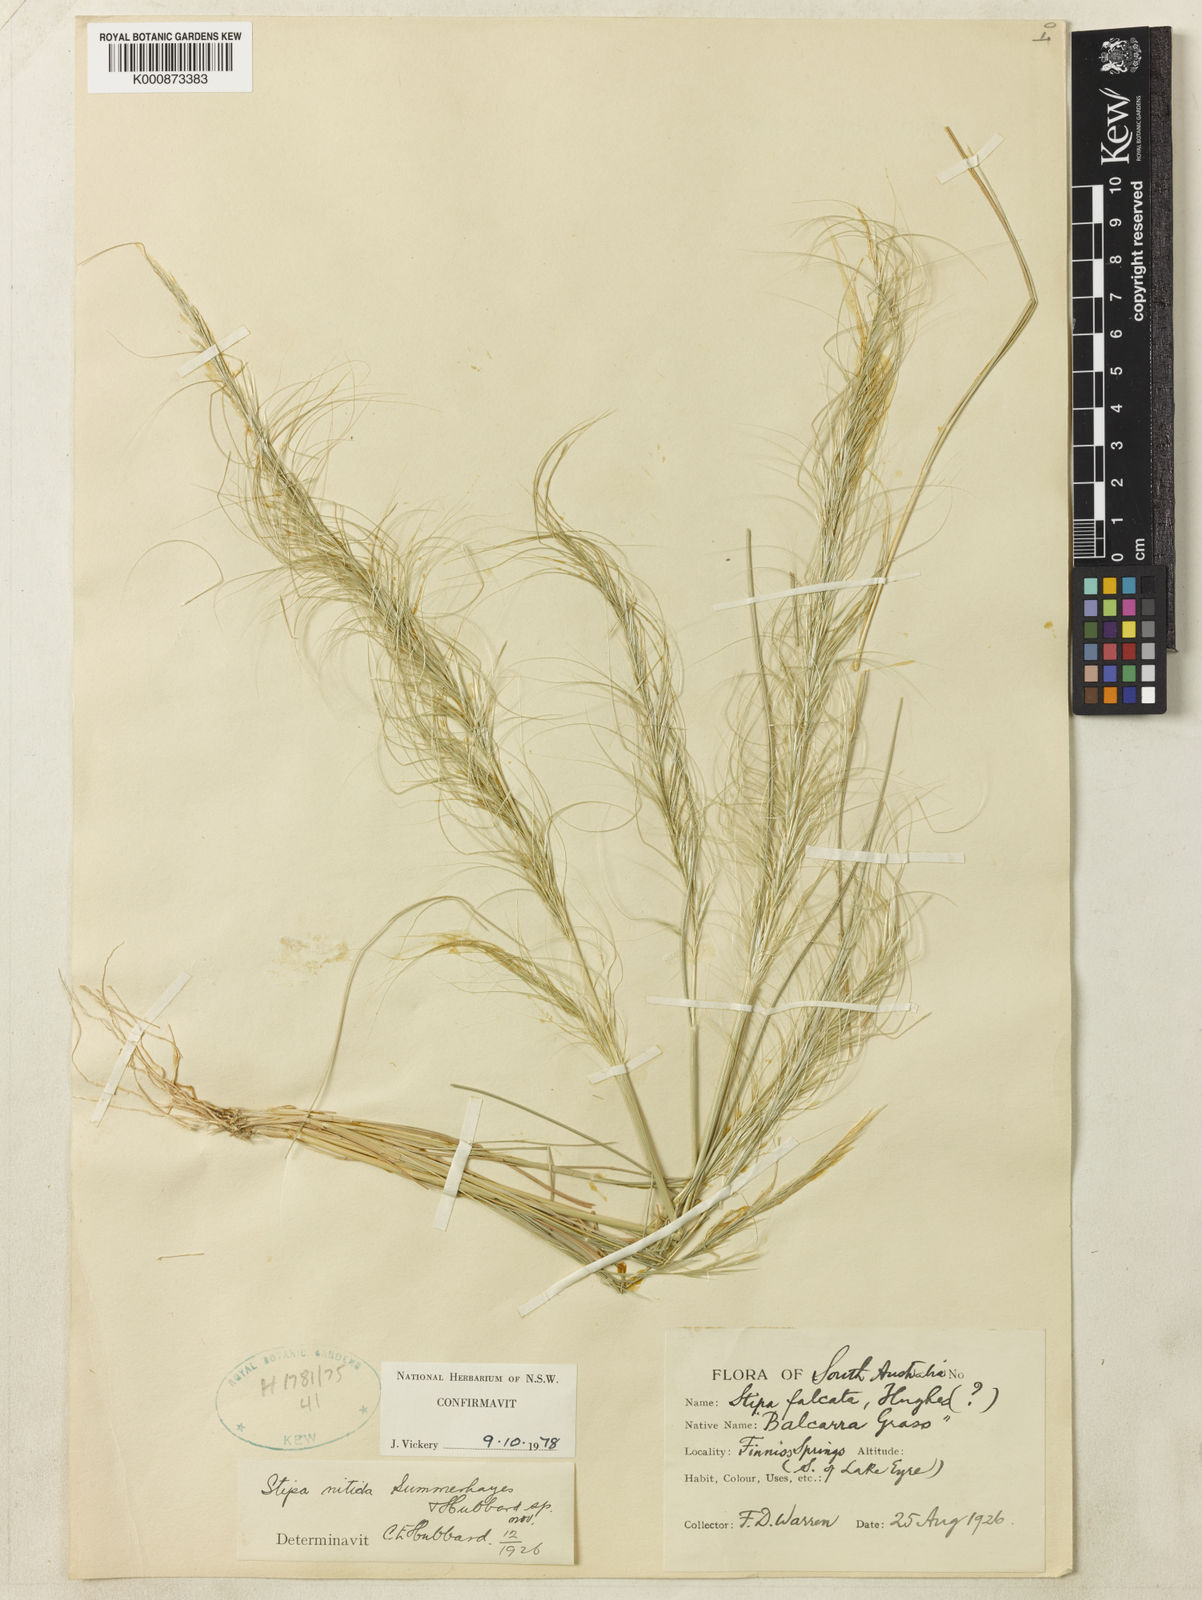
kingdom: Plantae
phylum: Tracheophyta
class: Liliopsida
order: Poales
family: Poaceae
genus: Austrostipa
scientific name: Austrostipa nitida
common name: Balcarra grass
